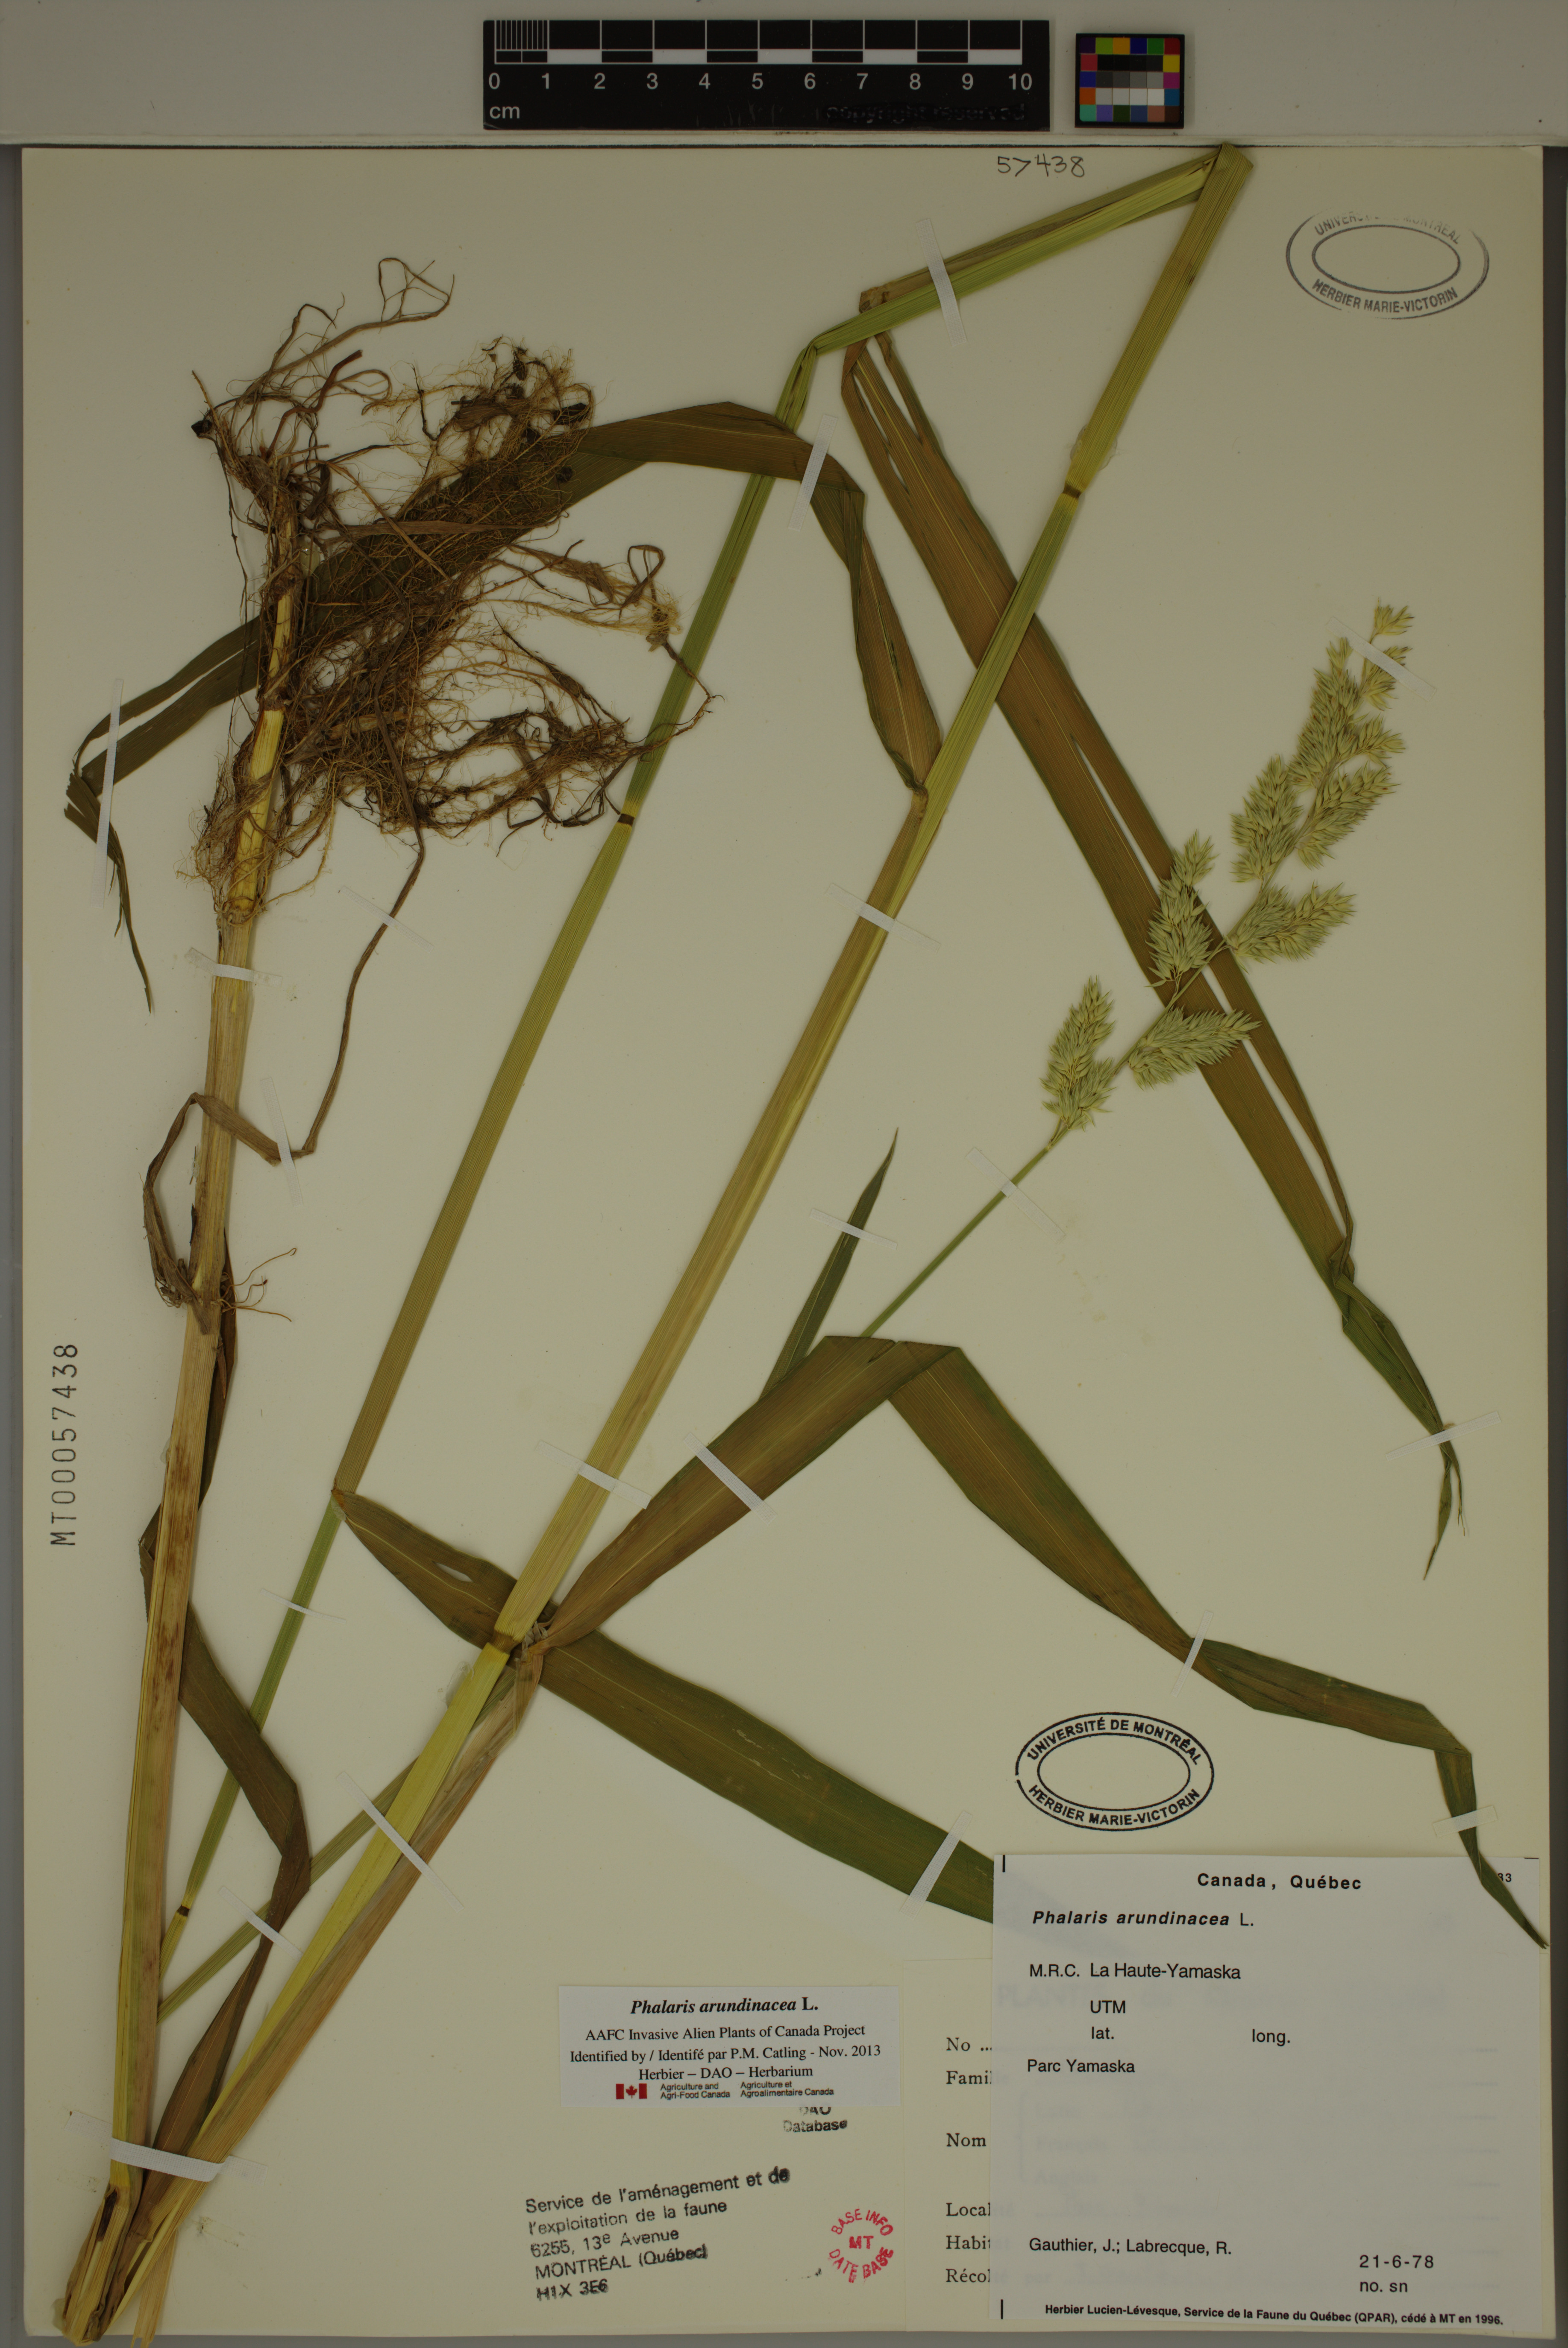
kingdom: Plantae
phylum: Tracheophyta
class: Liliopsida
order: Poales
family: Poaceae
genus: Phalaris
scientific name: Phalaris arundinacea
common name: Reed canary-grass
